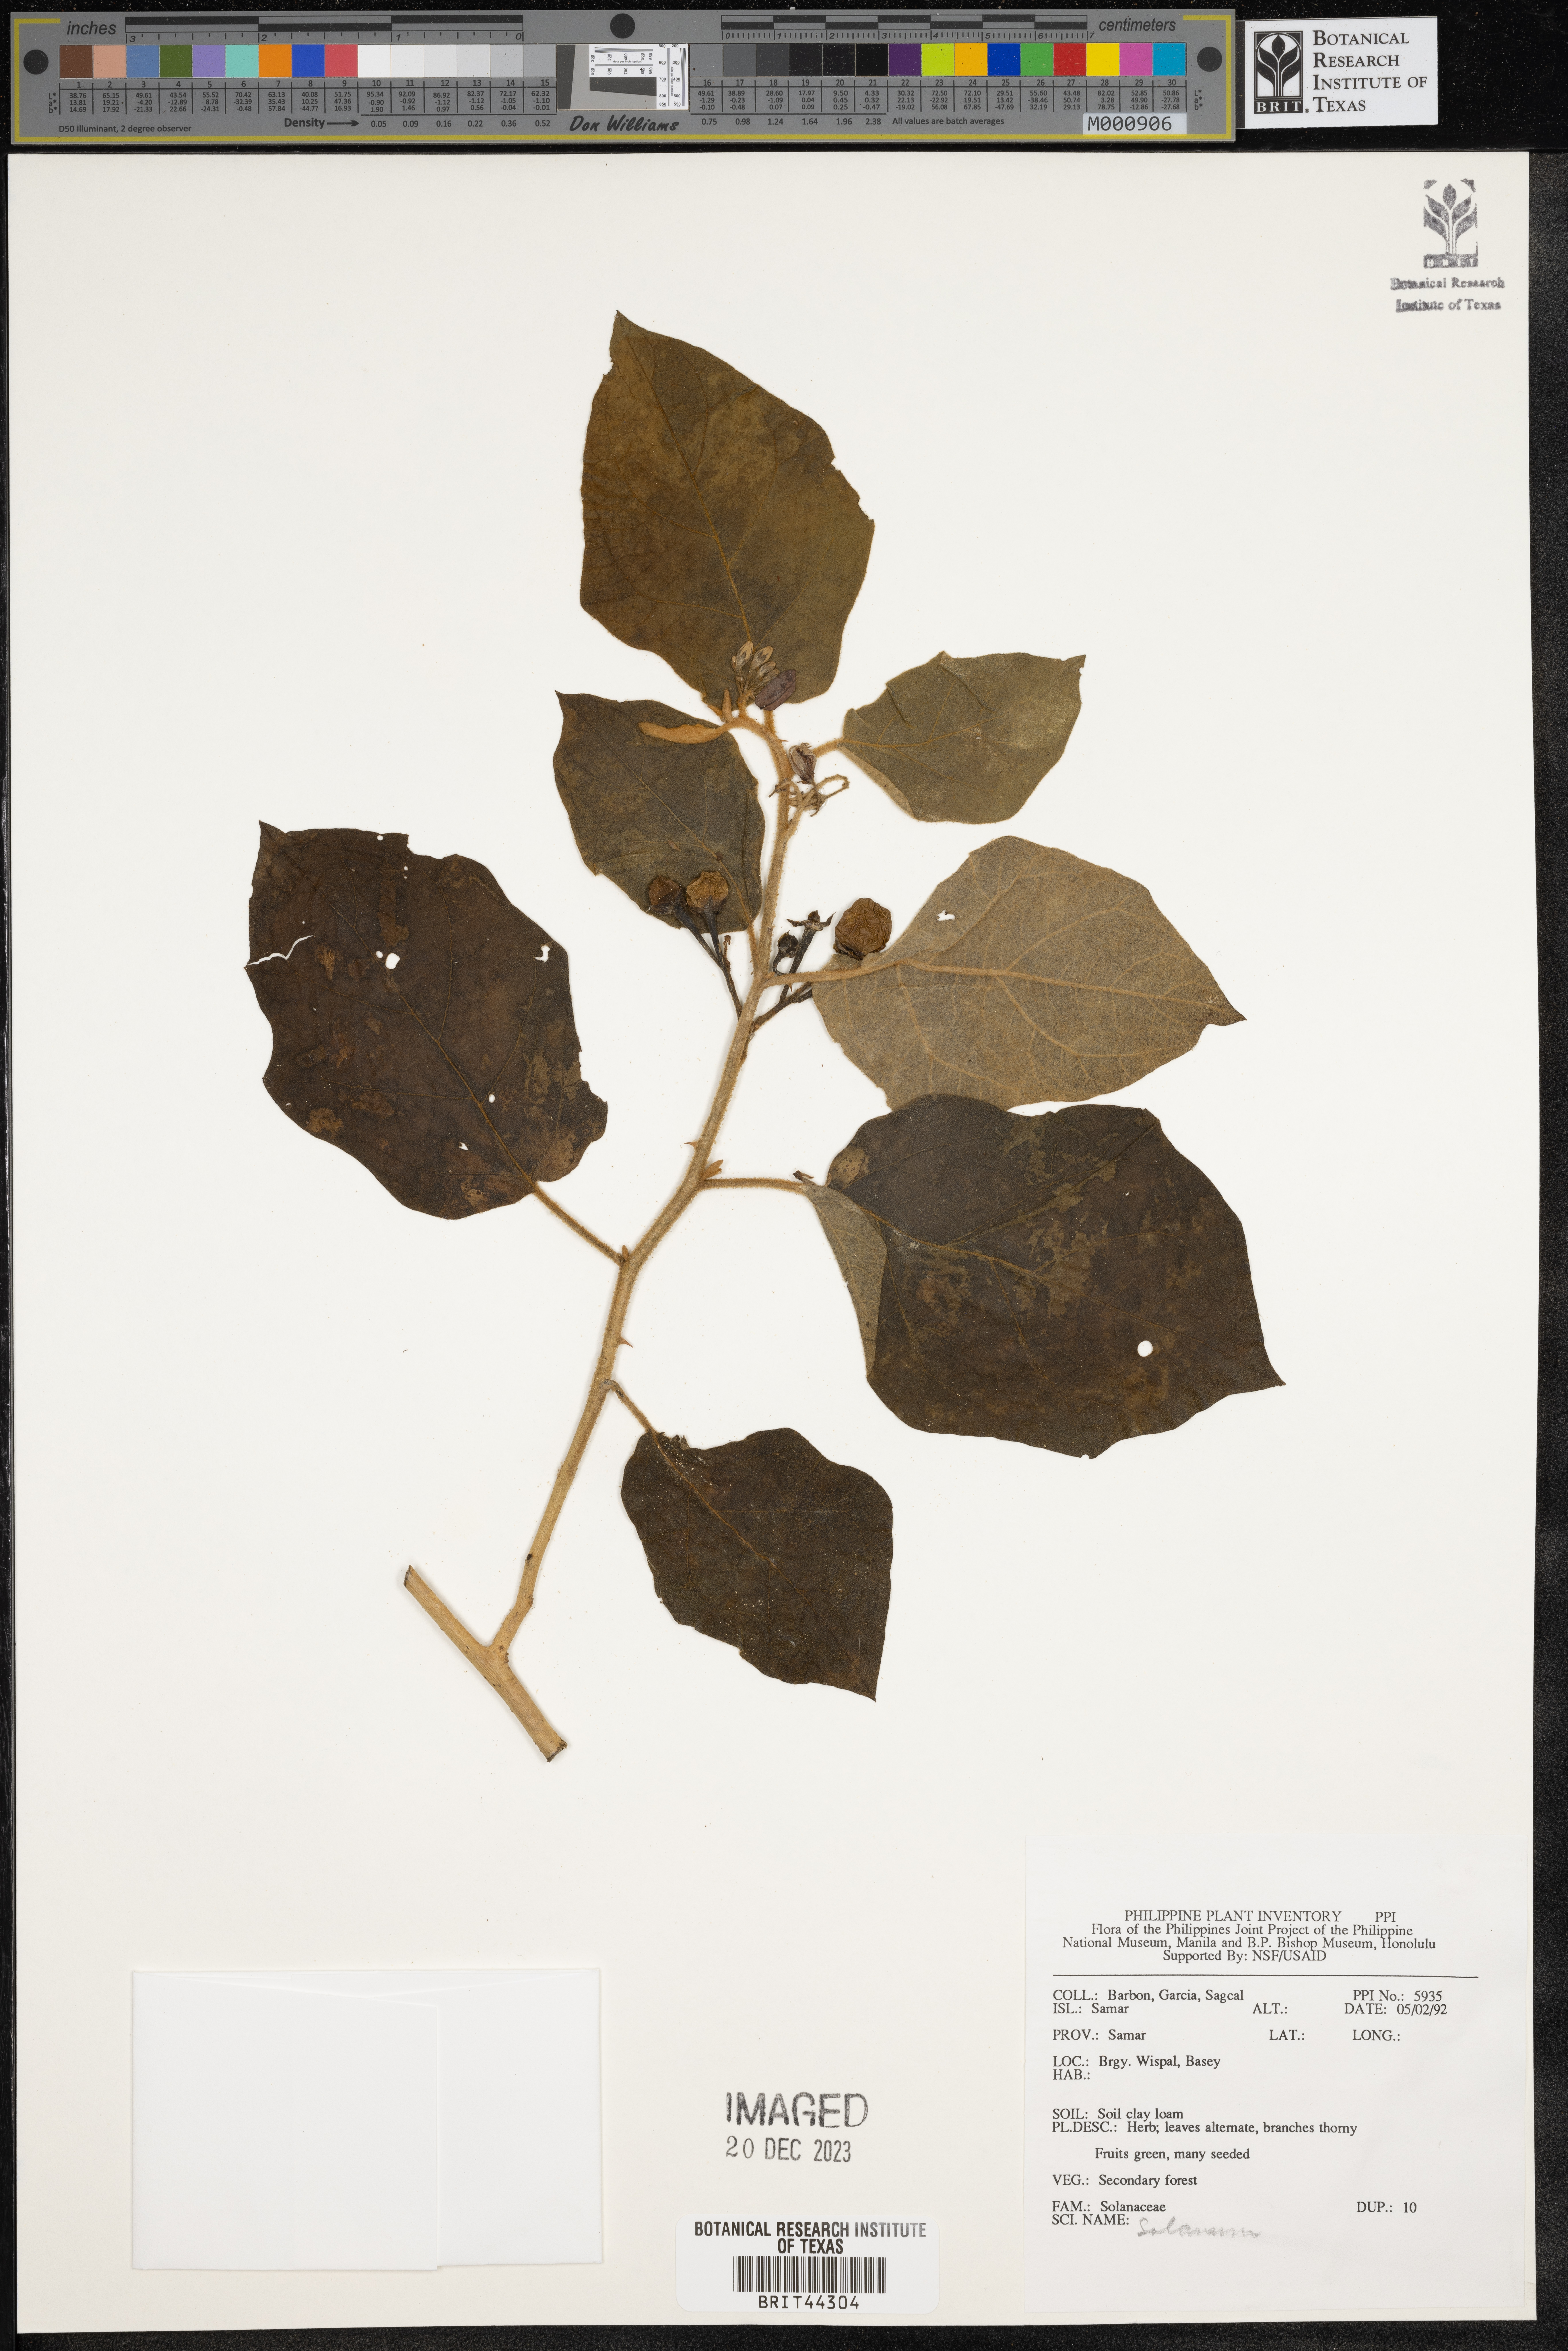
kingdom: Plantae
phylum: Tracheophyta
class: Magnoliopsida
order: Solanales
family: Solanaceae
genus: Solanum
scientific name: Solanum
